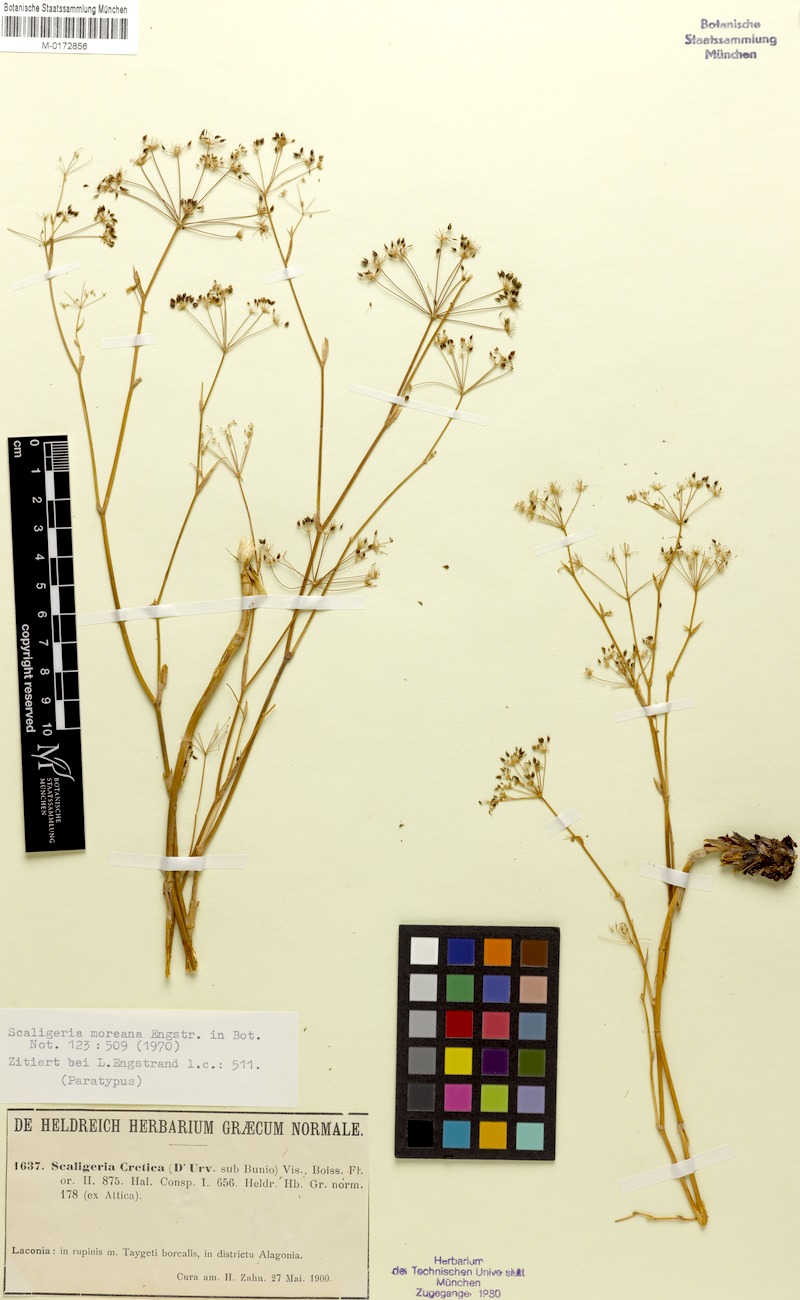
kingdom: Plantae
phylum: Tracheophyta
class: Magnoliopsida
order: Apiales
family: Apiaceae
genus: Scaligeria
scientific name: Scaligeria moreana
